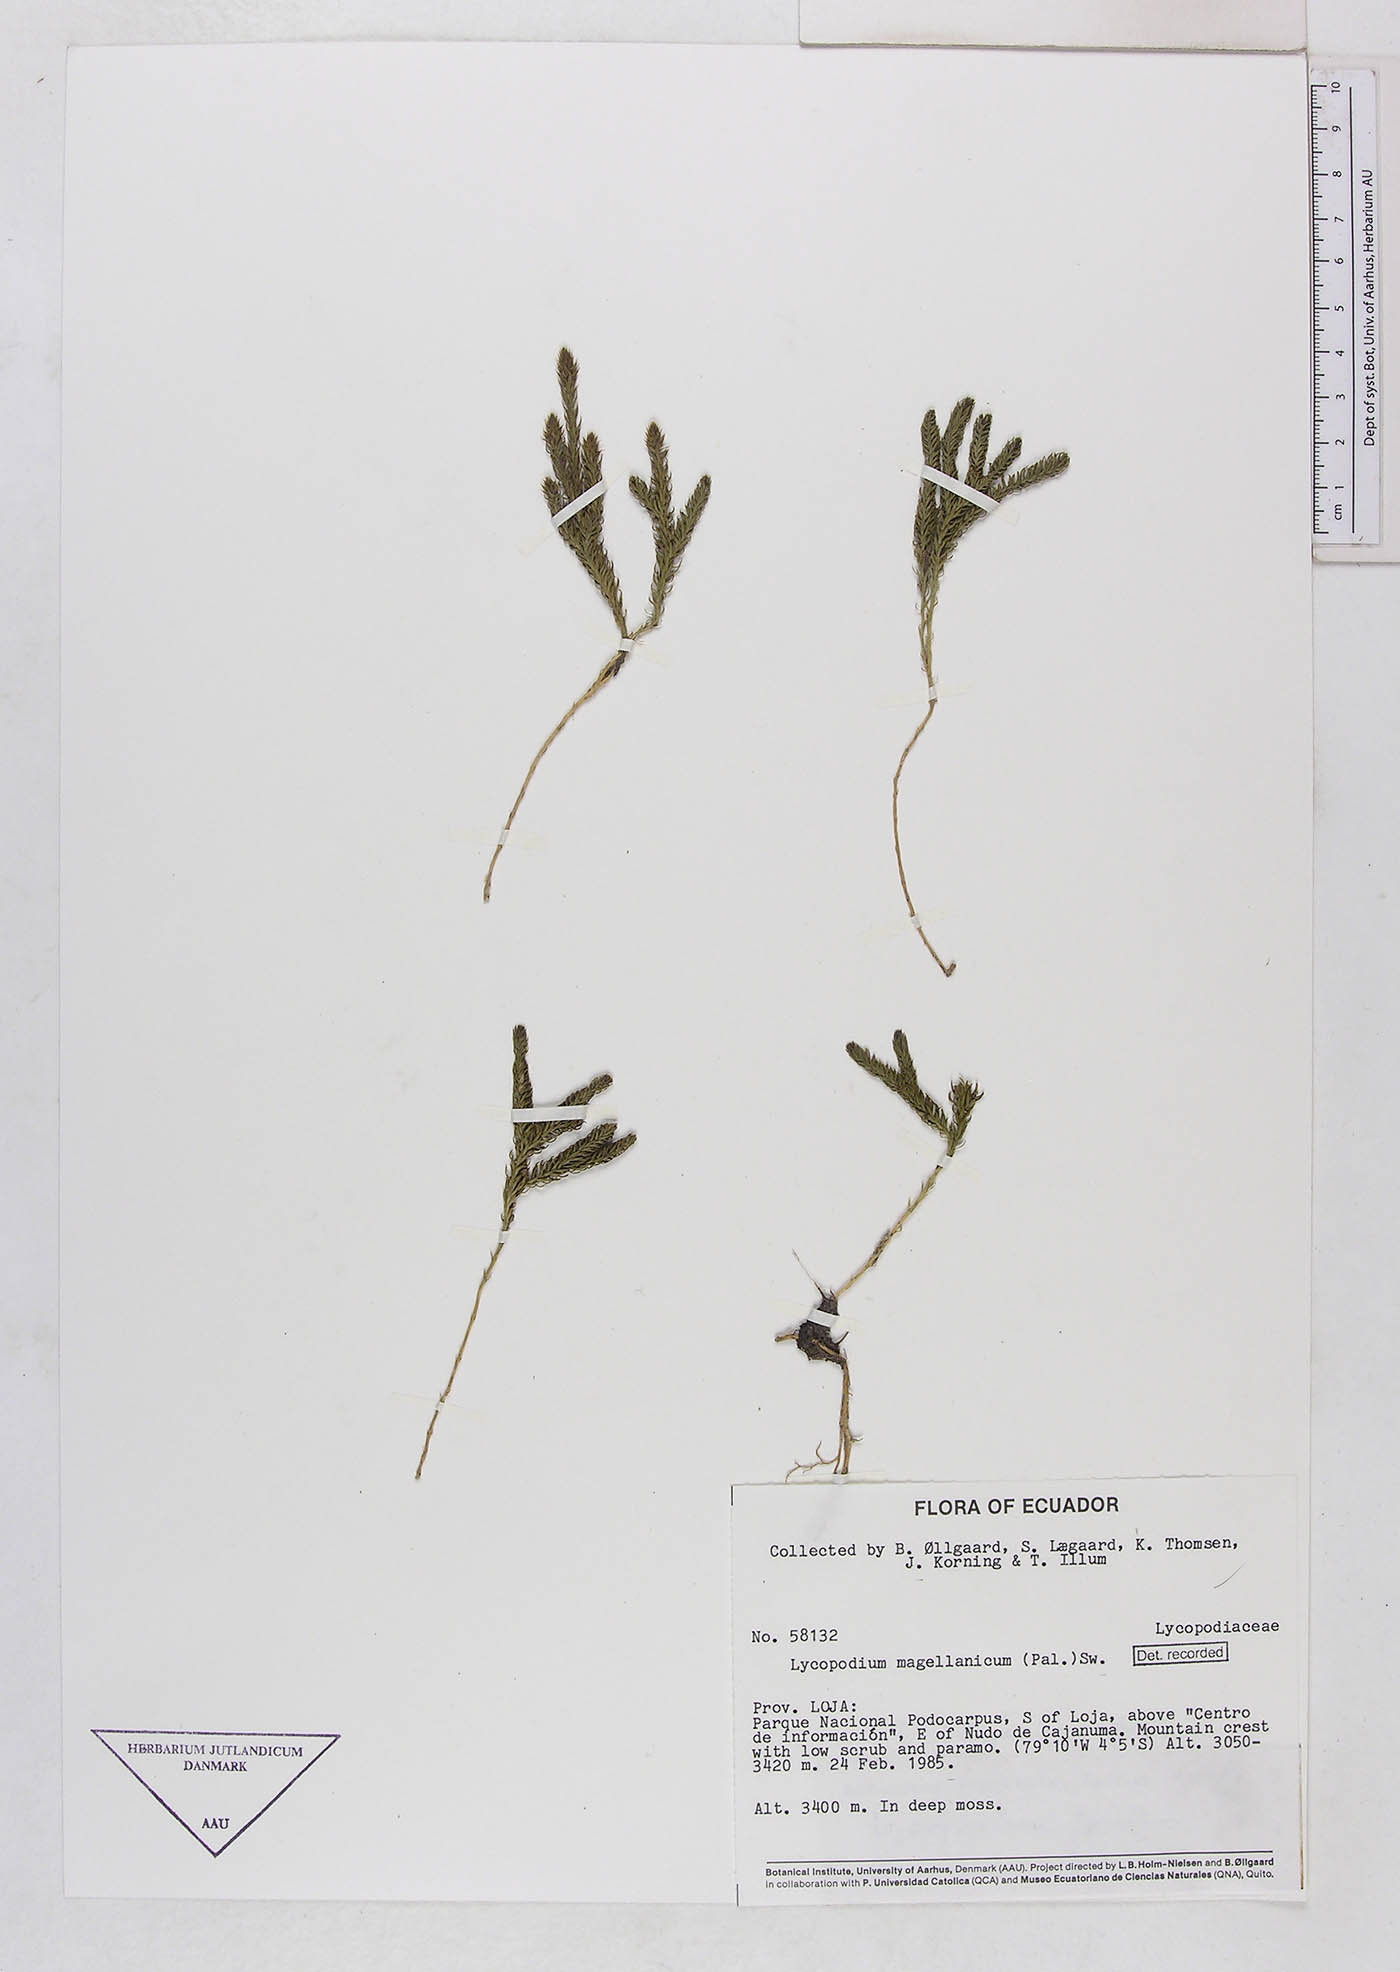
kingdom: Plantae
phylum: Tracheophyta
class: Lycopodiopsida
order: Lycopodiales
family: Lycopodiaceae
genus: Austrolycopodium
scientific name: Austrolycopodium magellanicum
